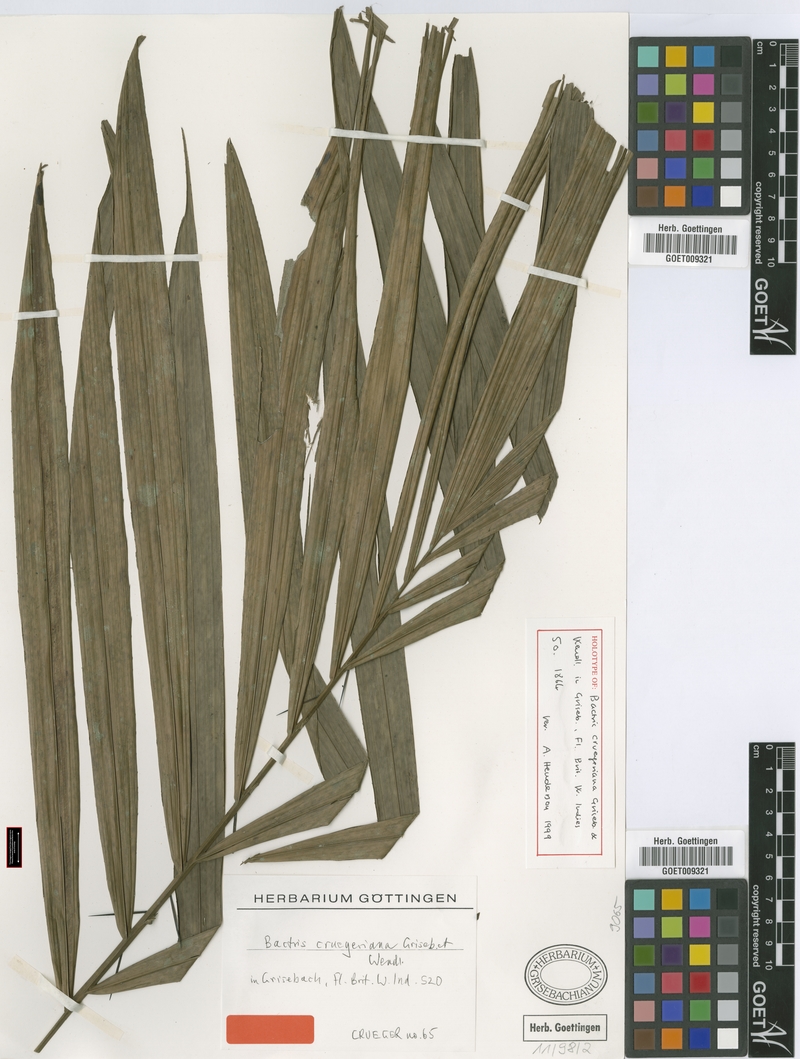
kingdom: Plantae
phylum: Tracheophyta
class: Liliopsida
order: Arecales
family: Arecaceae
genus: Bactris
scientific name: Bactris major
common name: Beach palm
